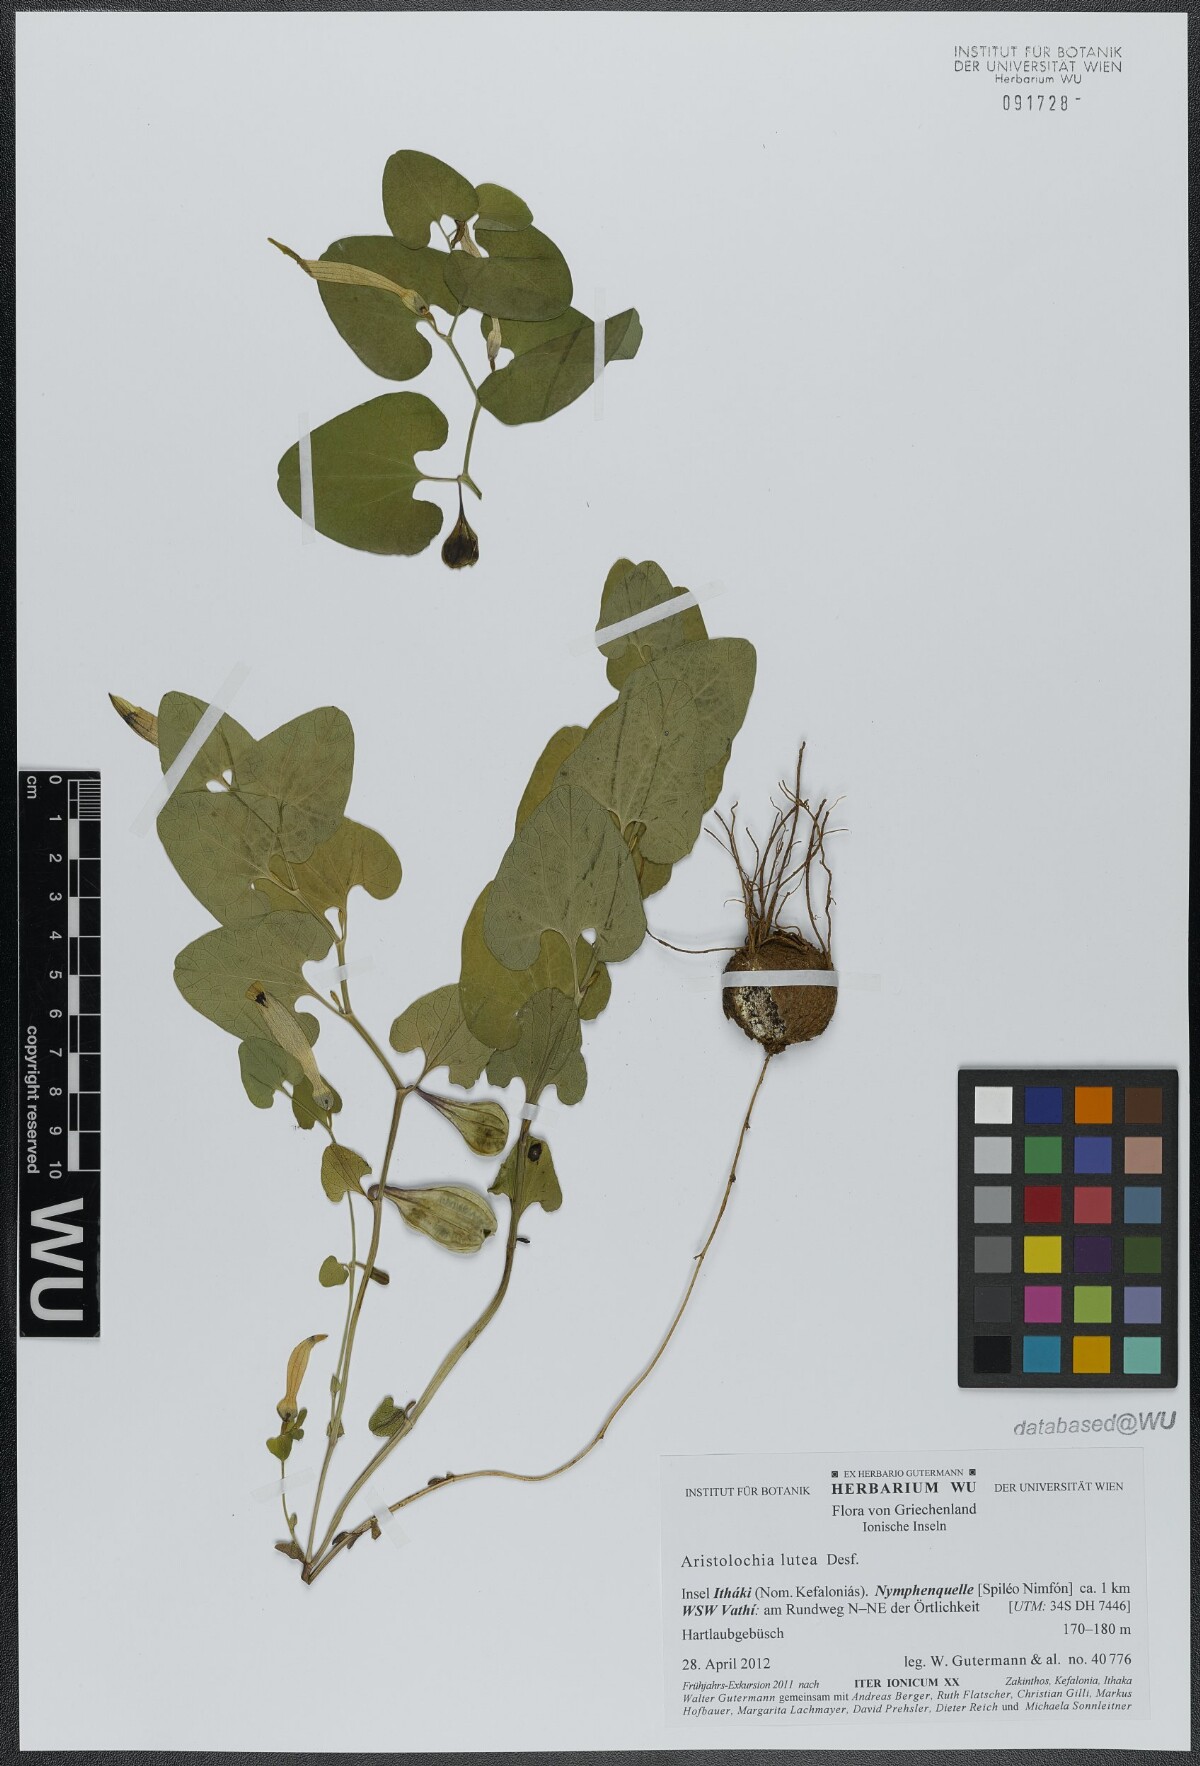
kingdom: Plantae
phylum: Tracheophyta
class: Magnoliopsida
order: Piperales
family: Aristolochiaceae
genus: Aristolochia
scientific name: Aristolochia lutea
